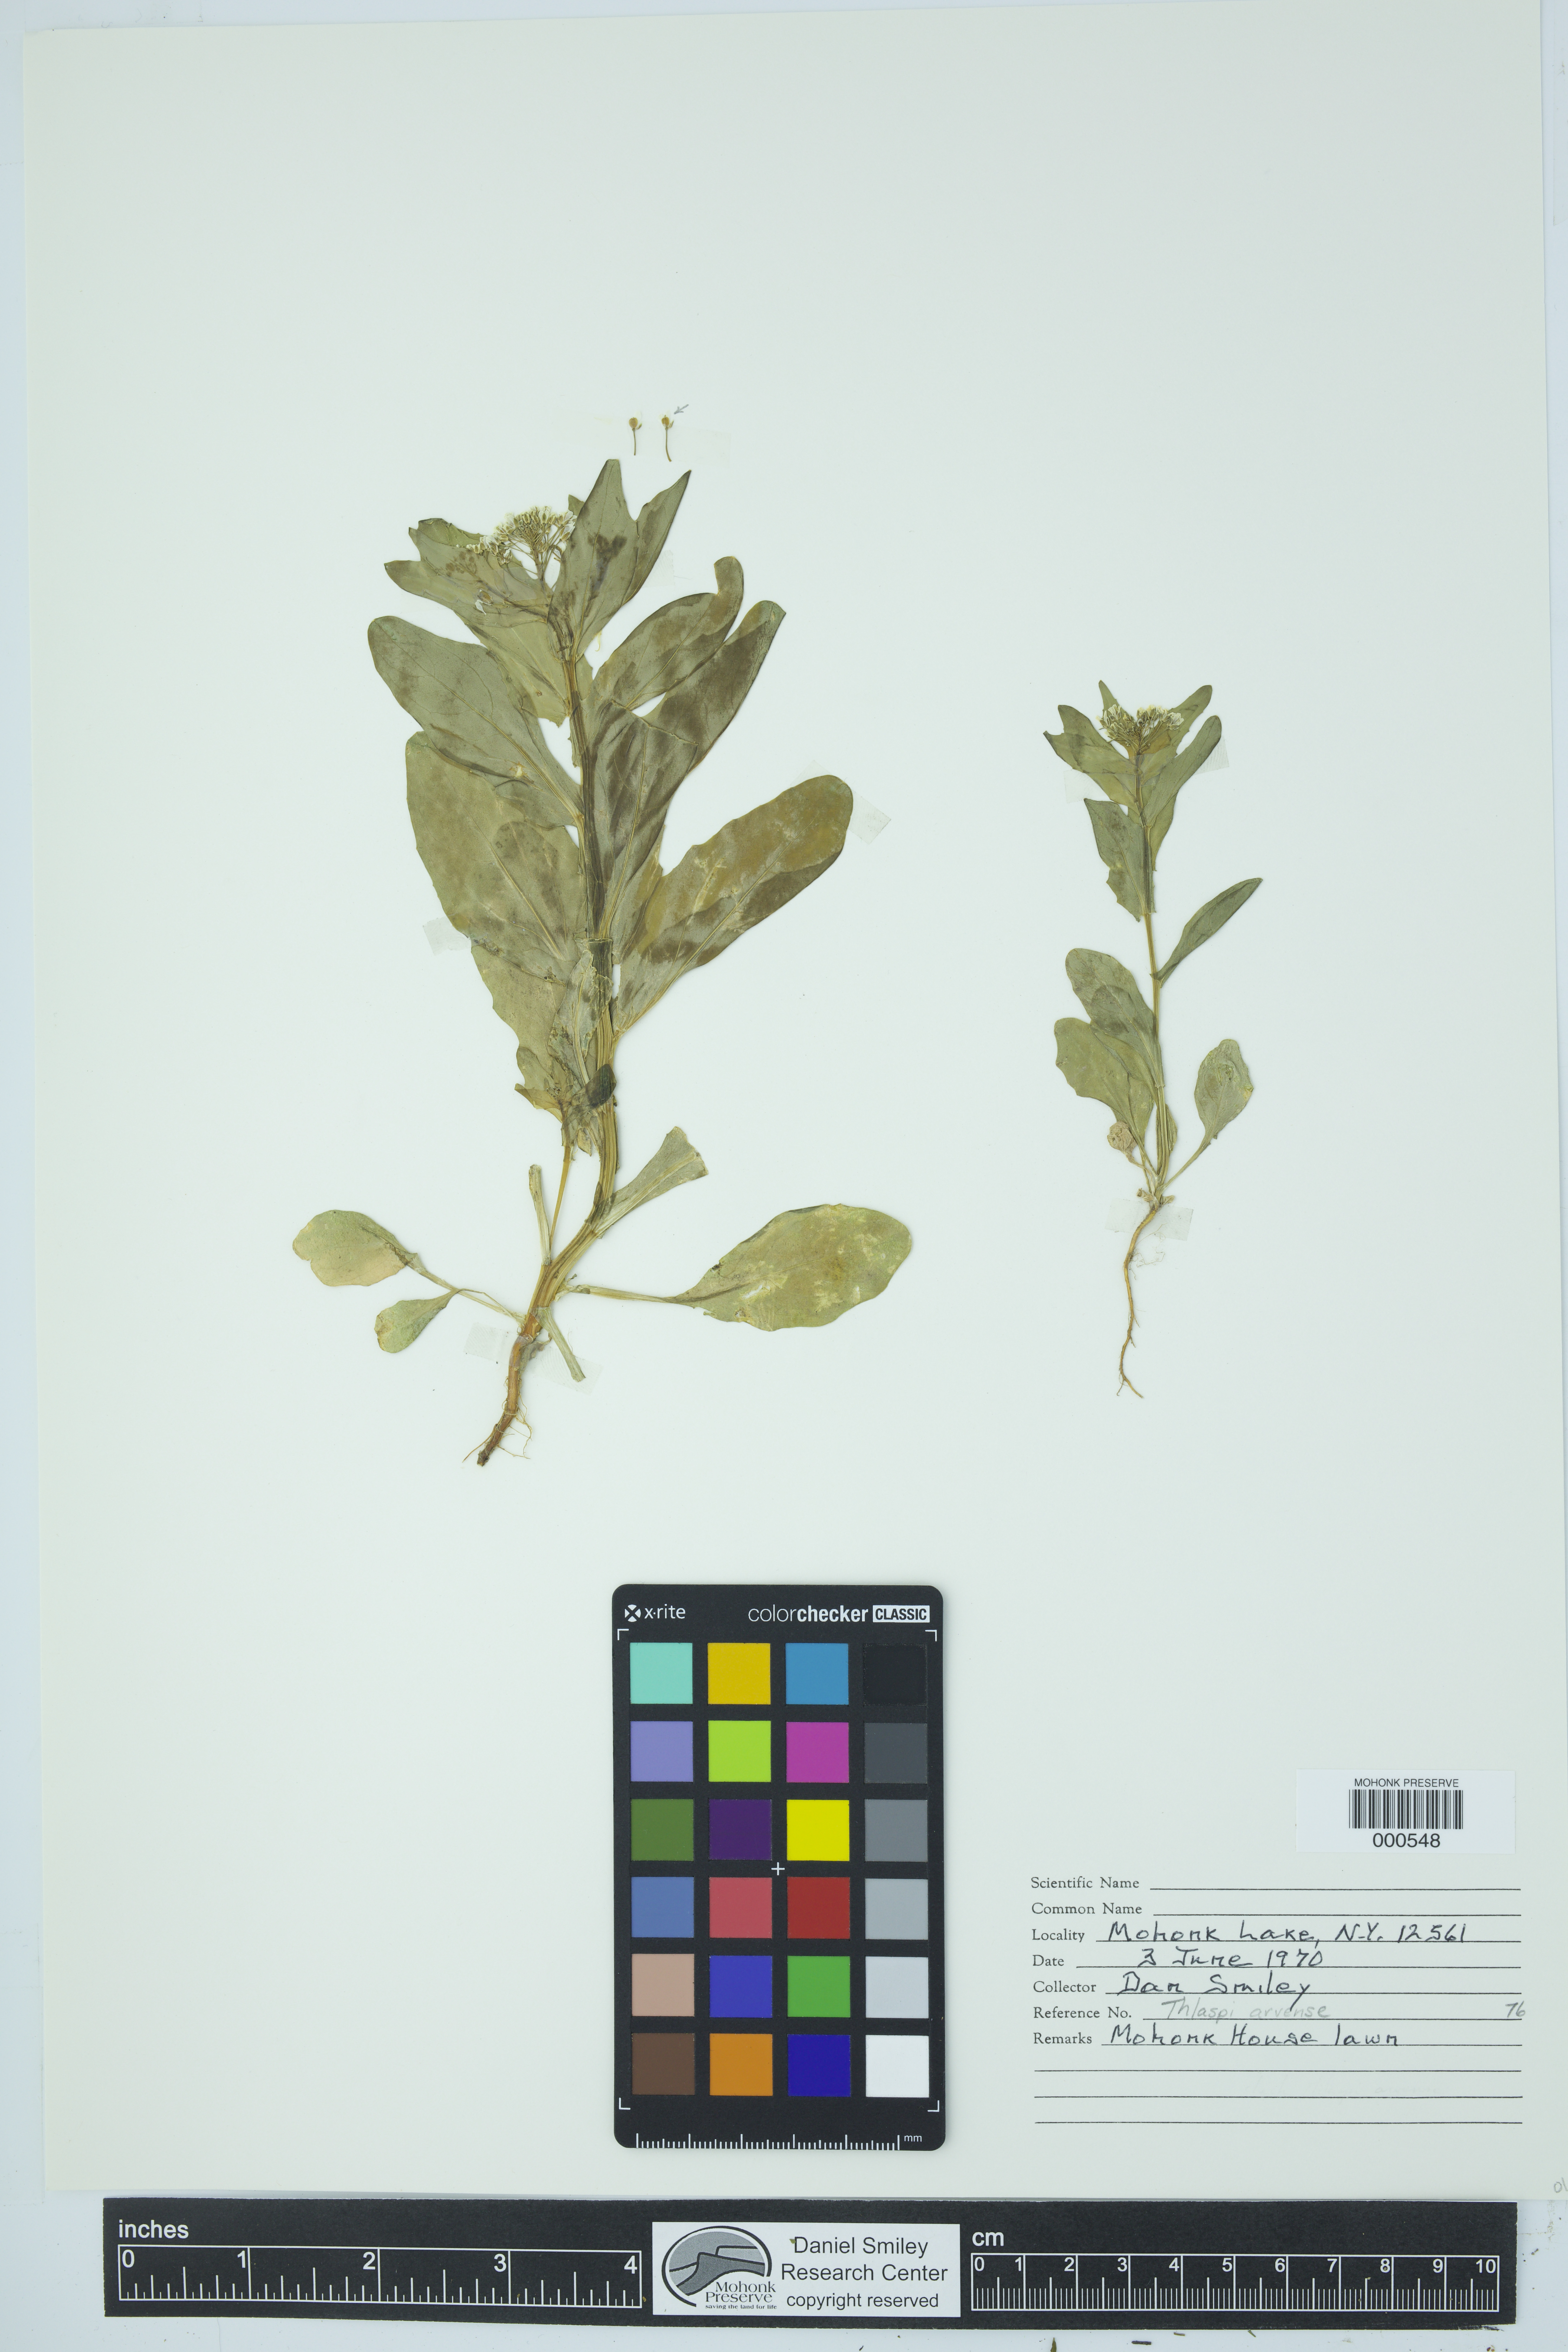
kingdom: Plantae
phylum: Tracheophyta
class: Magnoliopsida
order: Brassicales
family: Brassicaceae
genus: Thlaspi
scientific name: Thlaspi arvense
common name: Field pennycress
